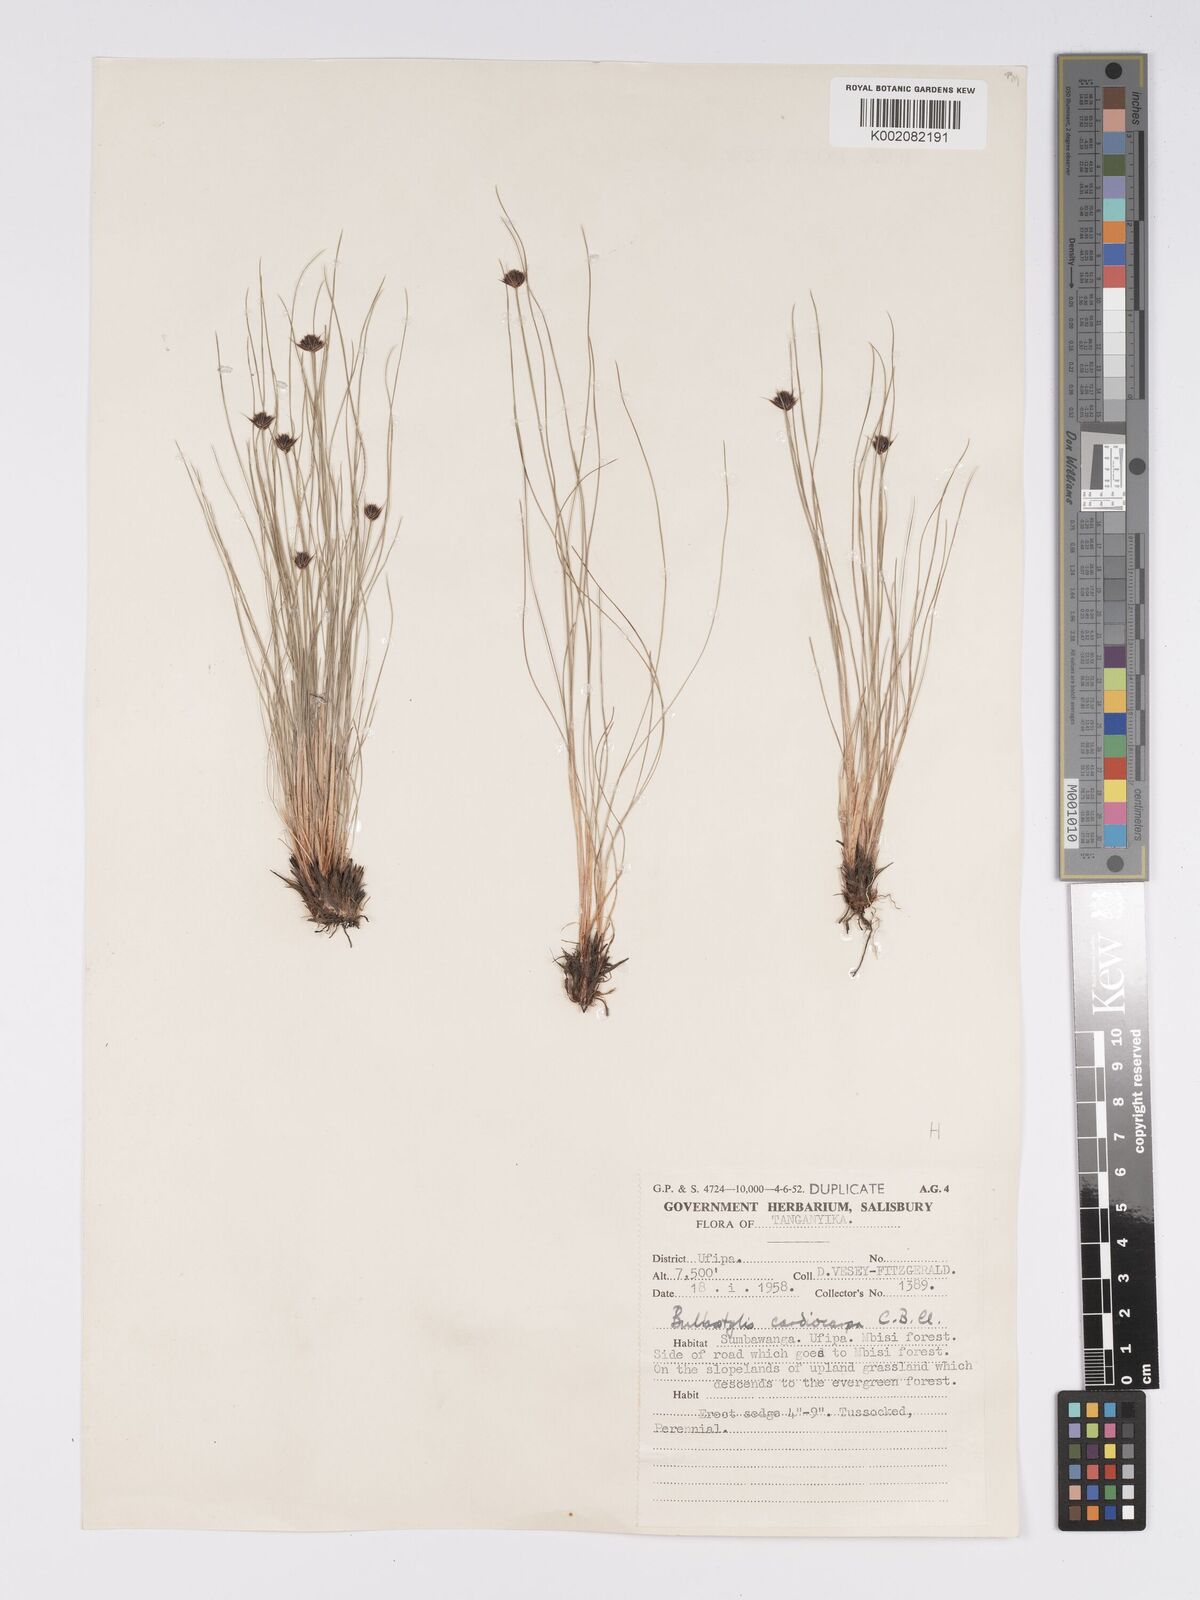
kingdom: Plantae
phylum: Tracheophyta
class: Liliopsida
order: Poales
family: Cyperaceae
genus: Bulbostylis
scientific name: Bulbostylis filamentosa
